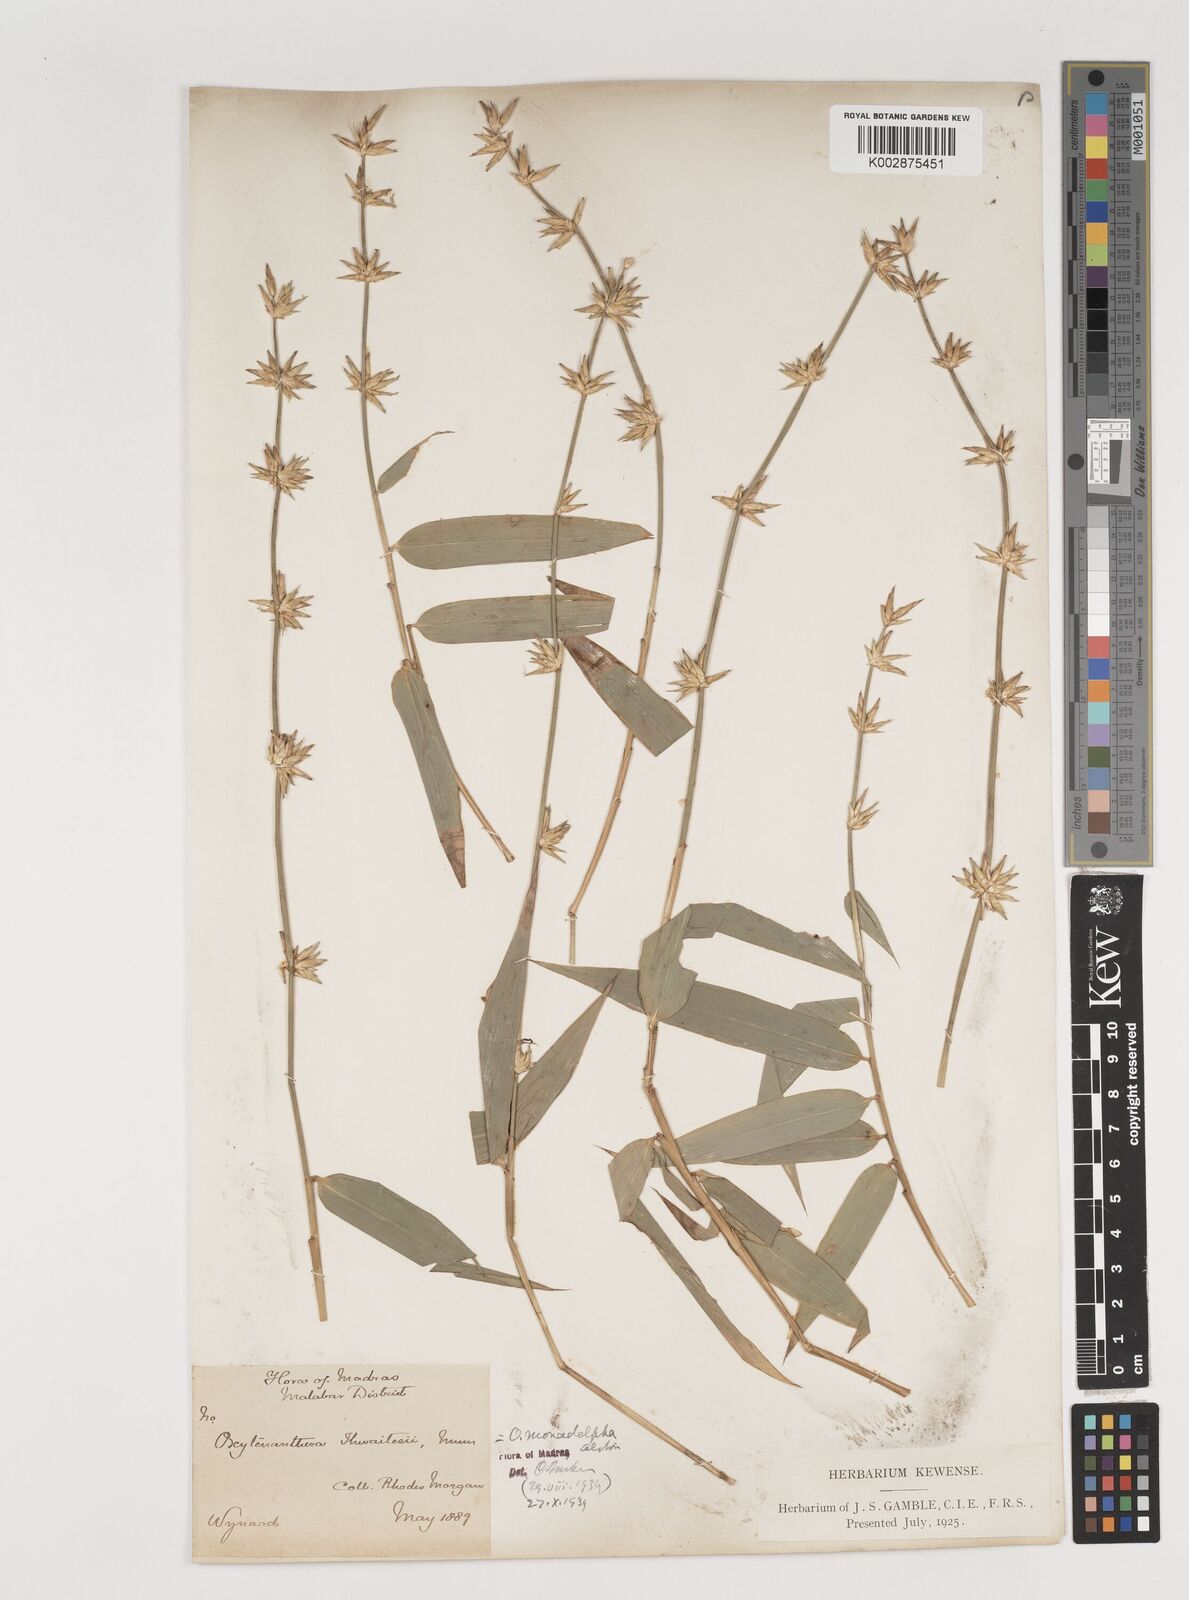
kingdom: Plantae
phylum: Tracheophyta
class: Liliopsida
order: Poales
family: Poaceae
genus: Pseudoxytenanthera
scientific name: Pseudoxytenanthera monadelpha
